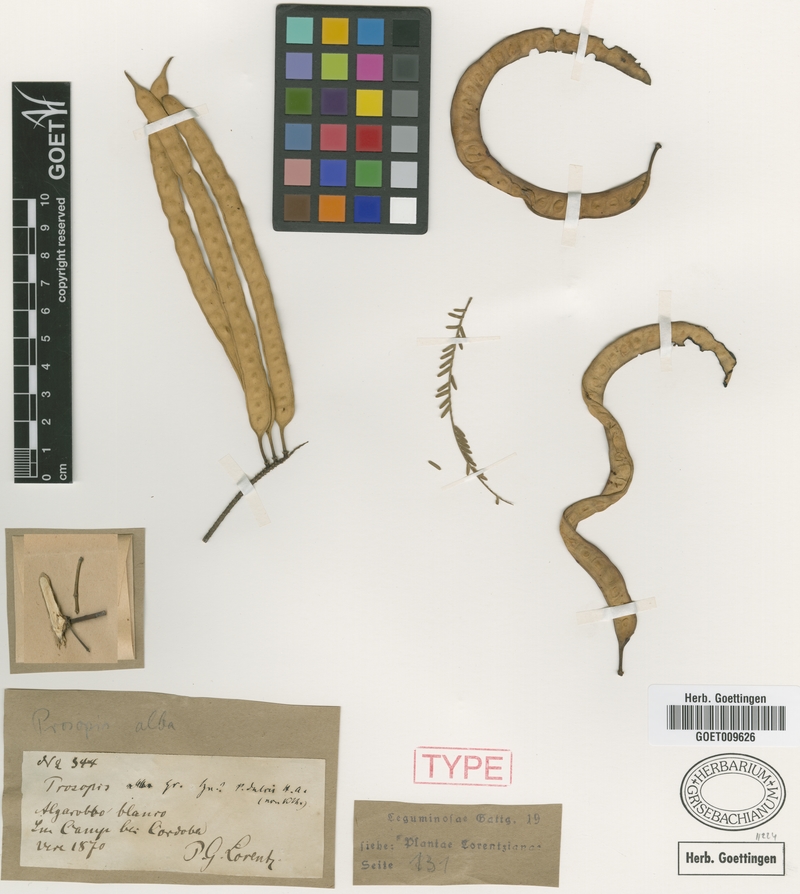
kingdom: Plantae
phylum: Tracheophyta
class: Magnoliopsida
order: Fabales
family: Fabaceae
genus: Prosopis
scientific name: Prosopis alba
